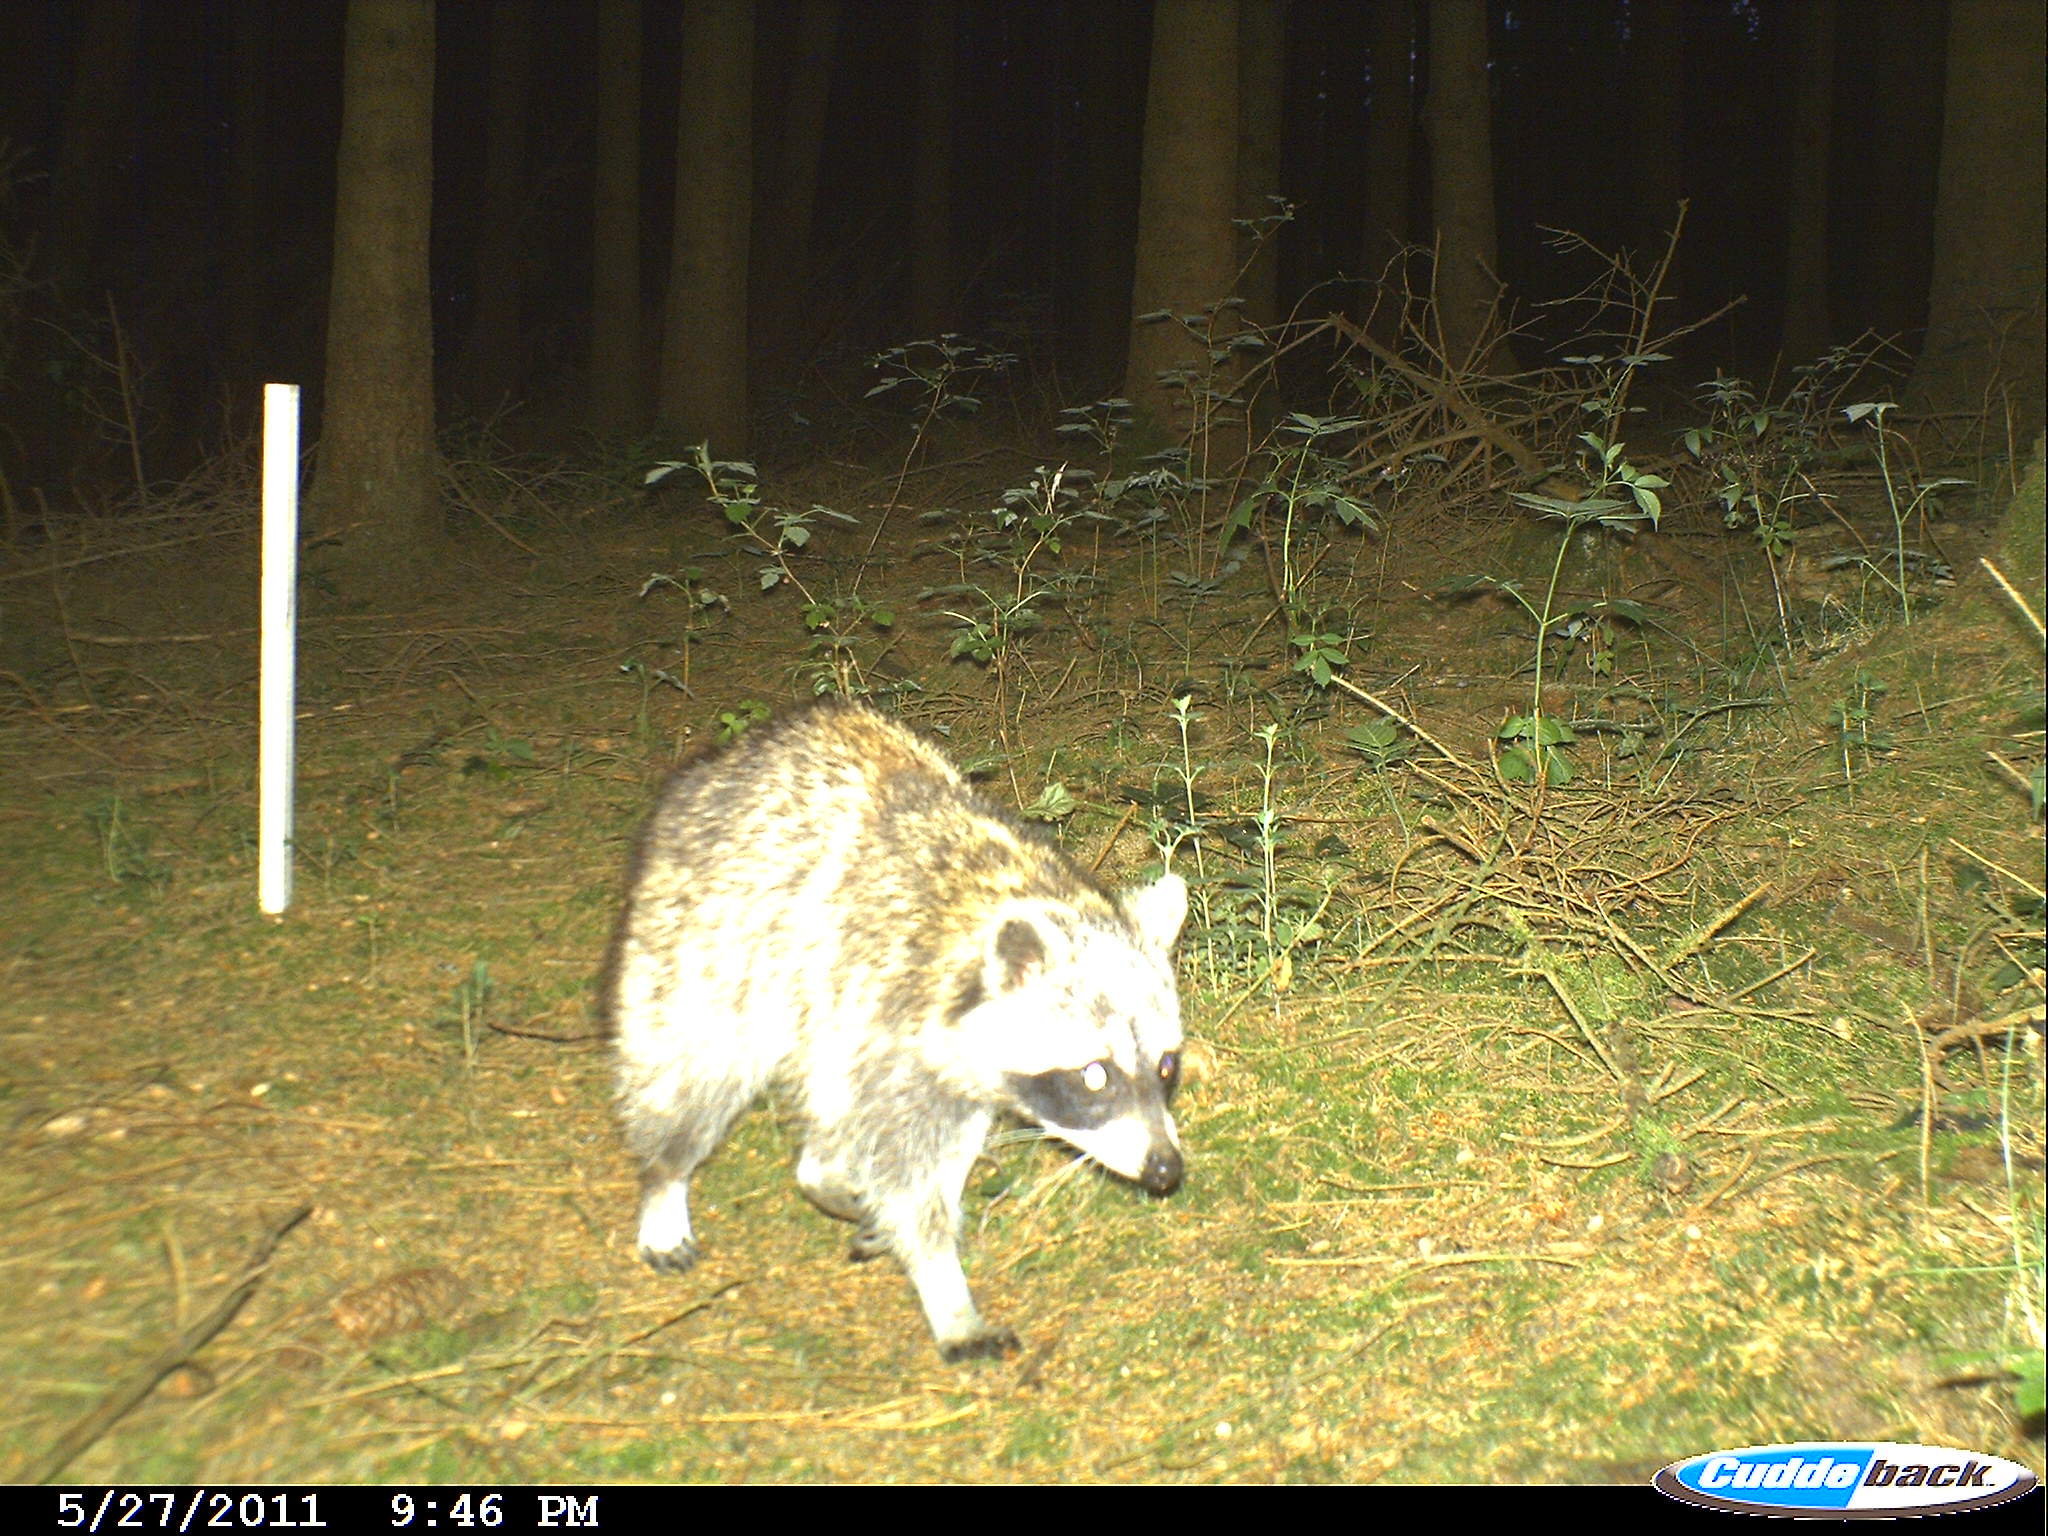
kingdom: Animalia
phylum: Chordata
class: Mammalia
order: Carnivora
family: Procyonidae
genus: Procyon
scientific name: Procyon lotor
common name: Raccoon
